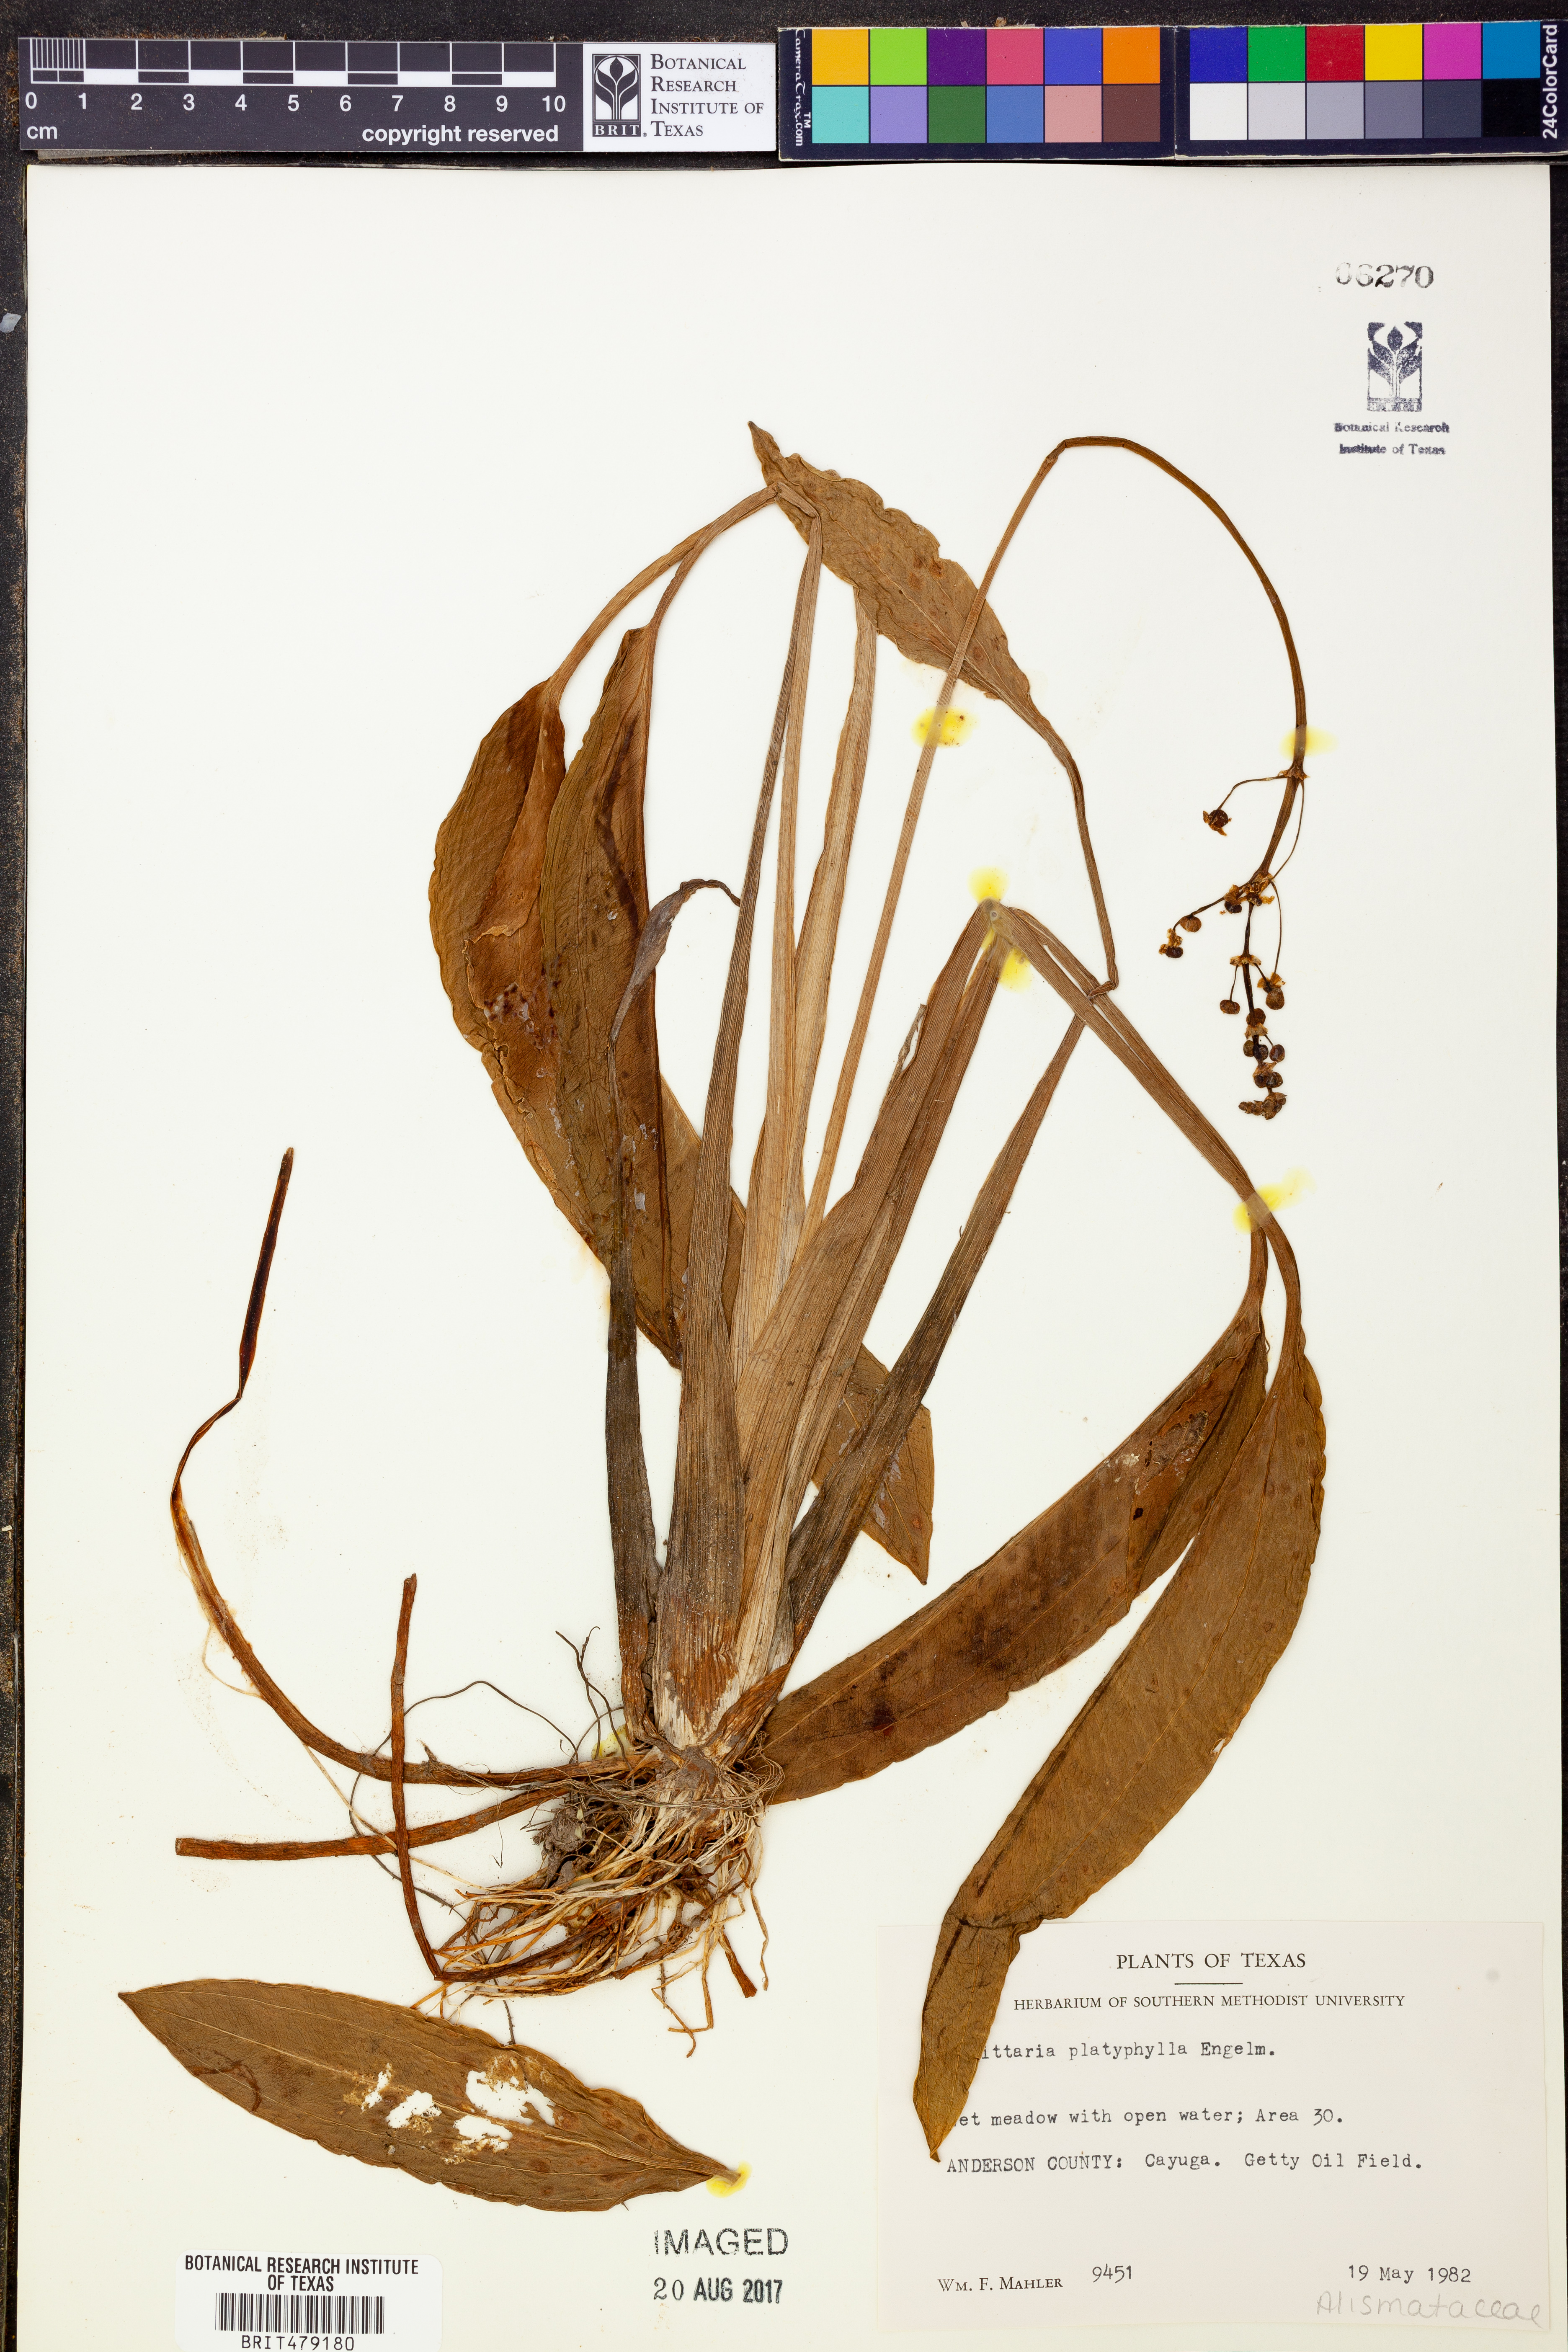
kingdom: Plantae
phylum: Tracheophyta
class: Liliopsida
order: Alismatales
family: Alismataceae
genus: Sagittaria
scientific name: Sagittaria platyphylla
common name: Broad-leaf arrowhead
